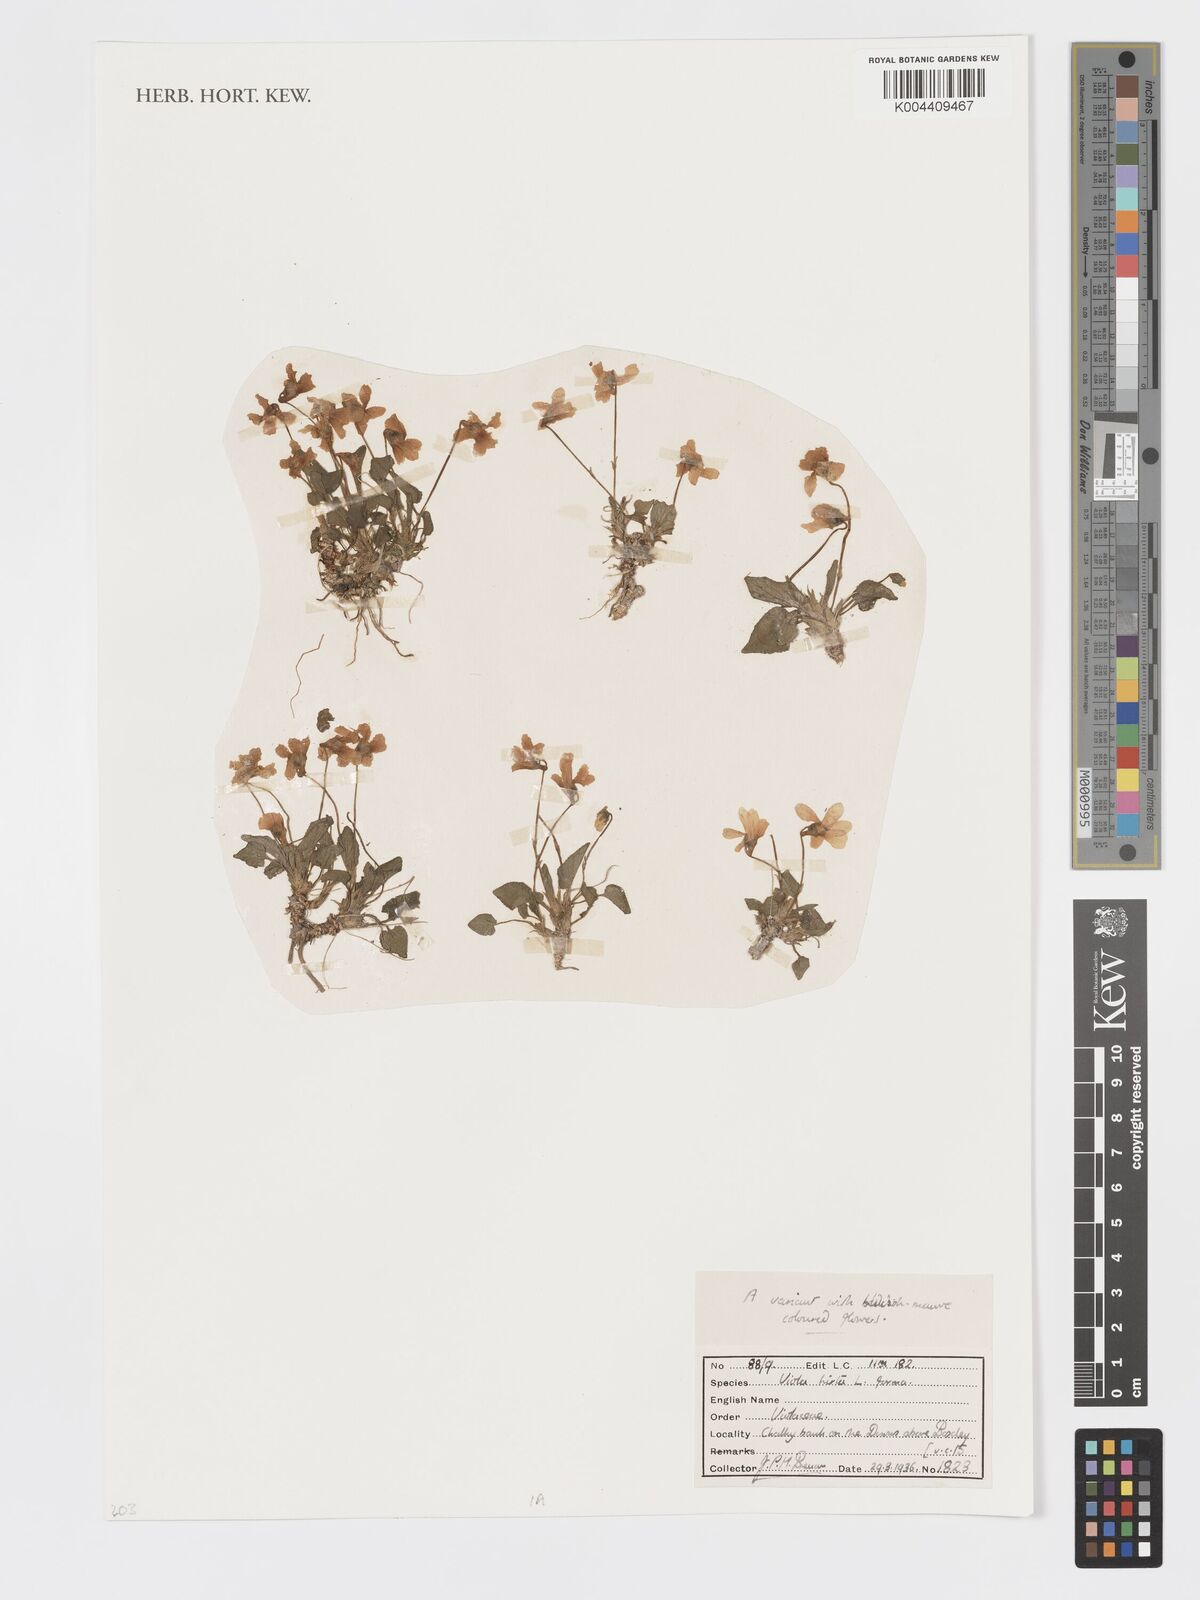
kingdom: Plantae
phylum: Tracheophyta
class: Magnoliopsida
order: Malpighiales
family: Violaceae
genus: Viola
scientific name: Viola
